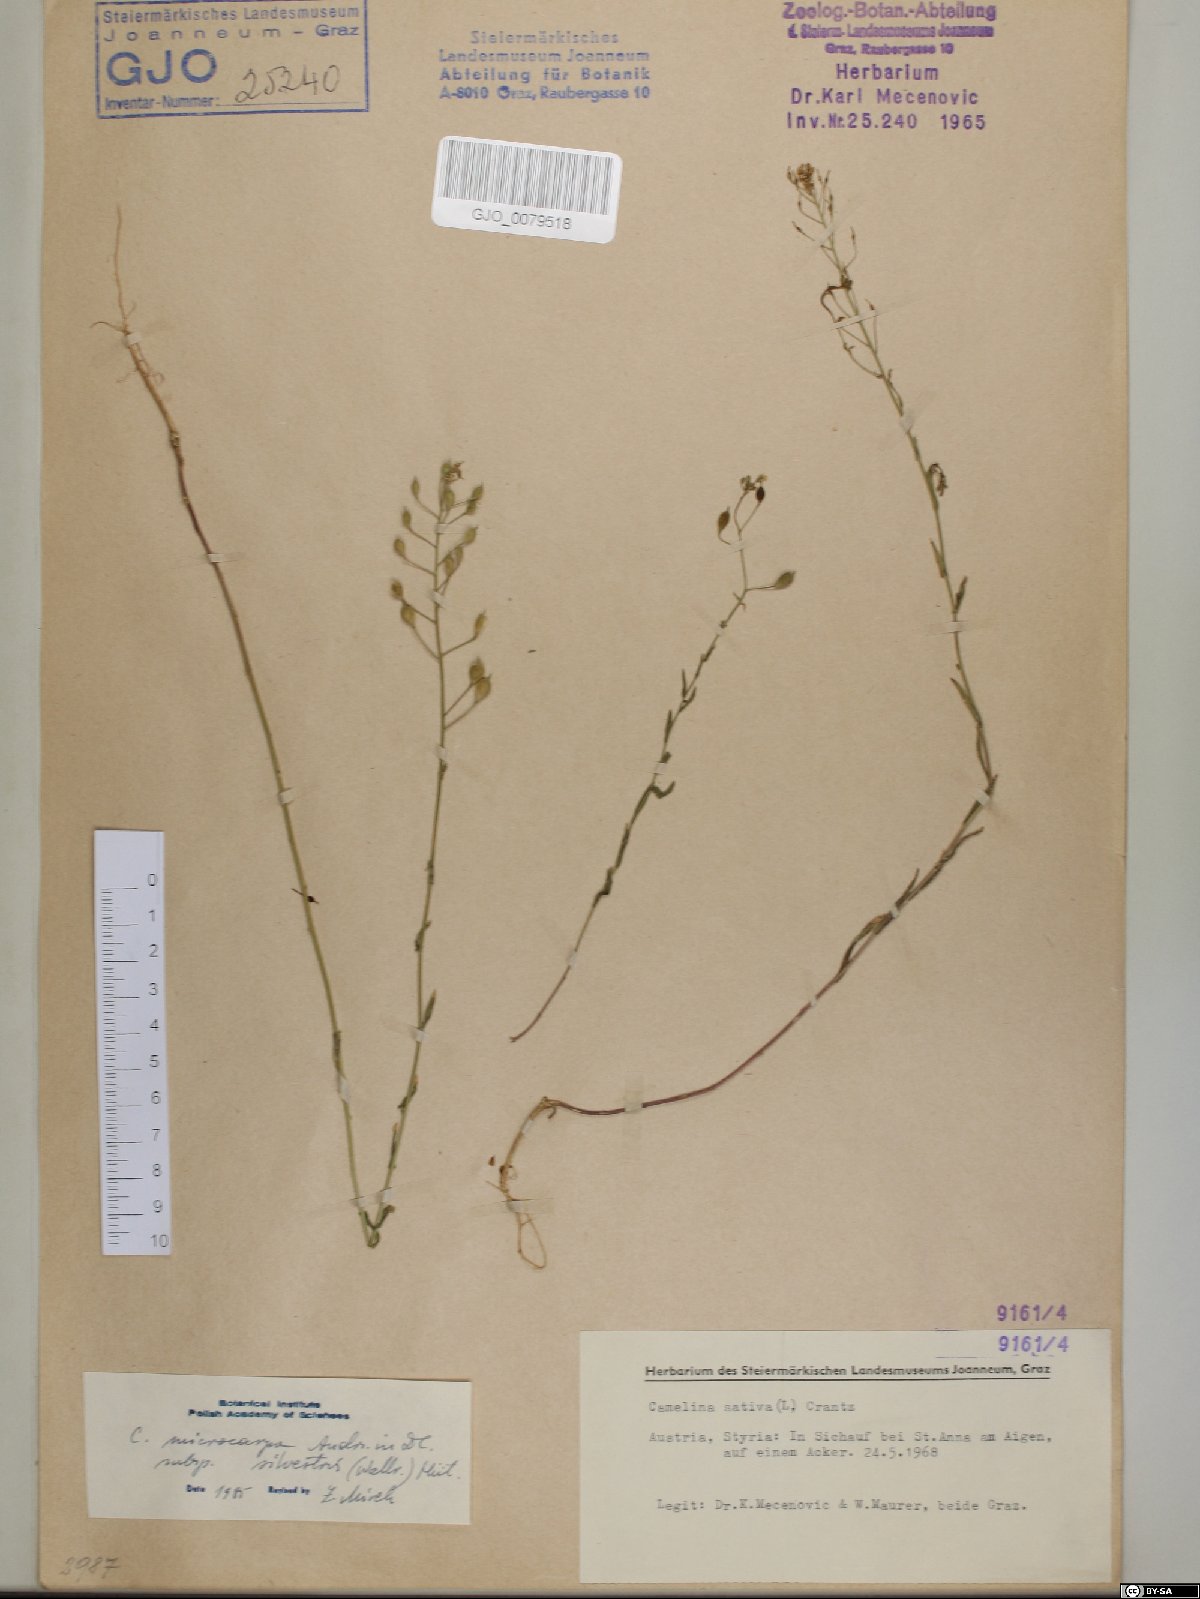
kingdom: Plantae
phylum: Tracheophyta
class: Magnoliopsida
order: Brassicales
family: Brassicaceae
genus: Camelina
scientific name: Camelina microcarpa
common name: Lesser gold-of-pleasure
